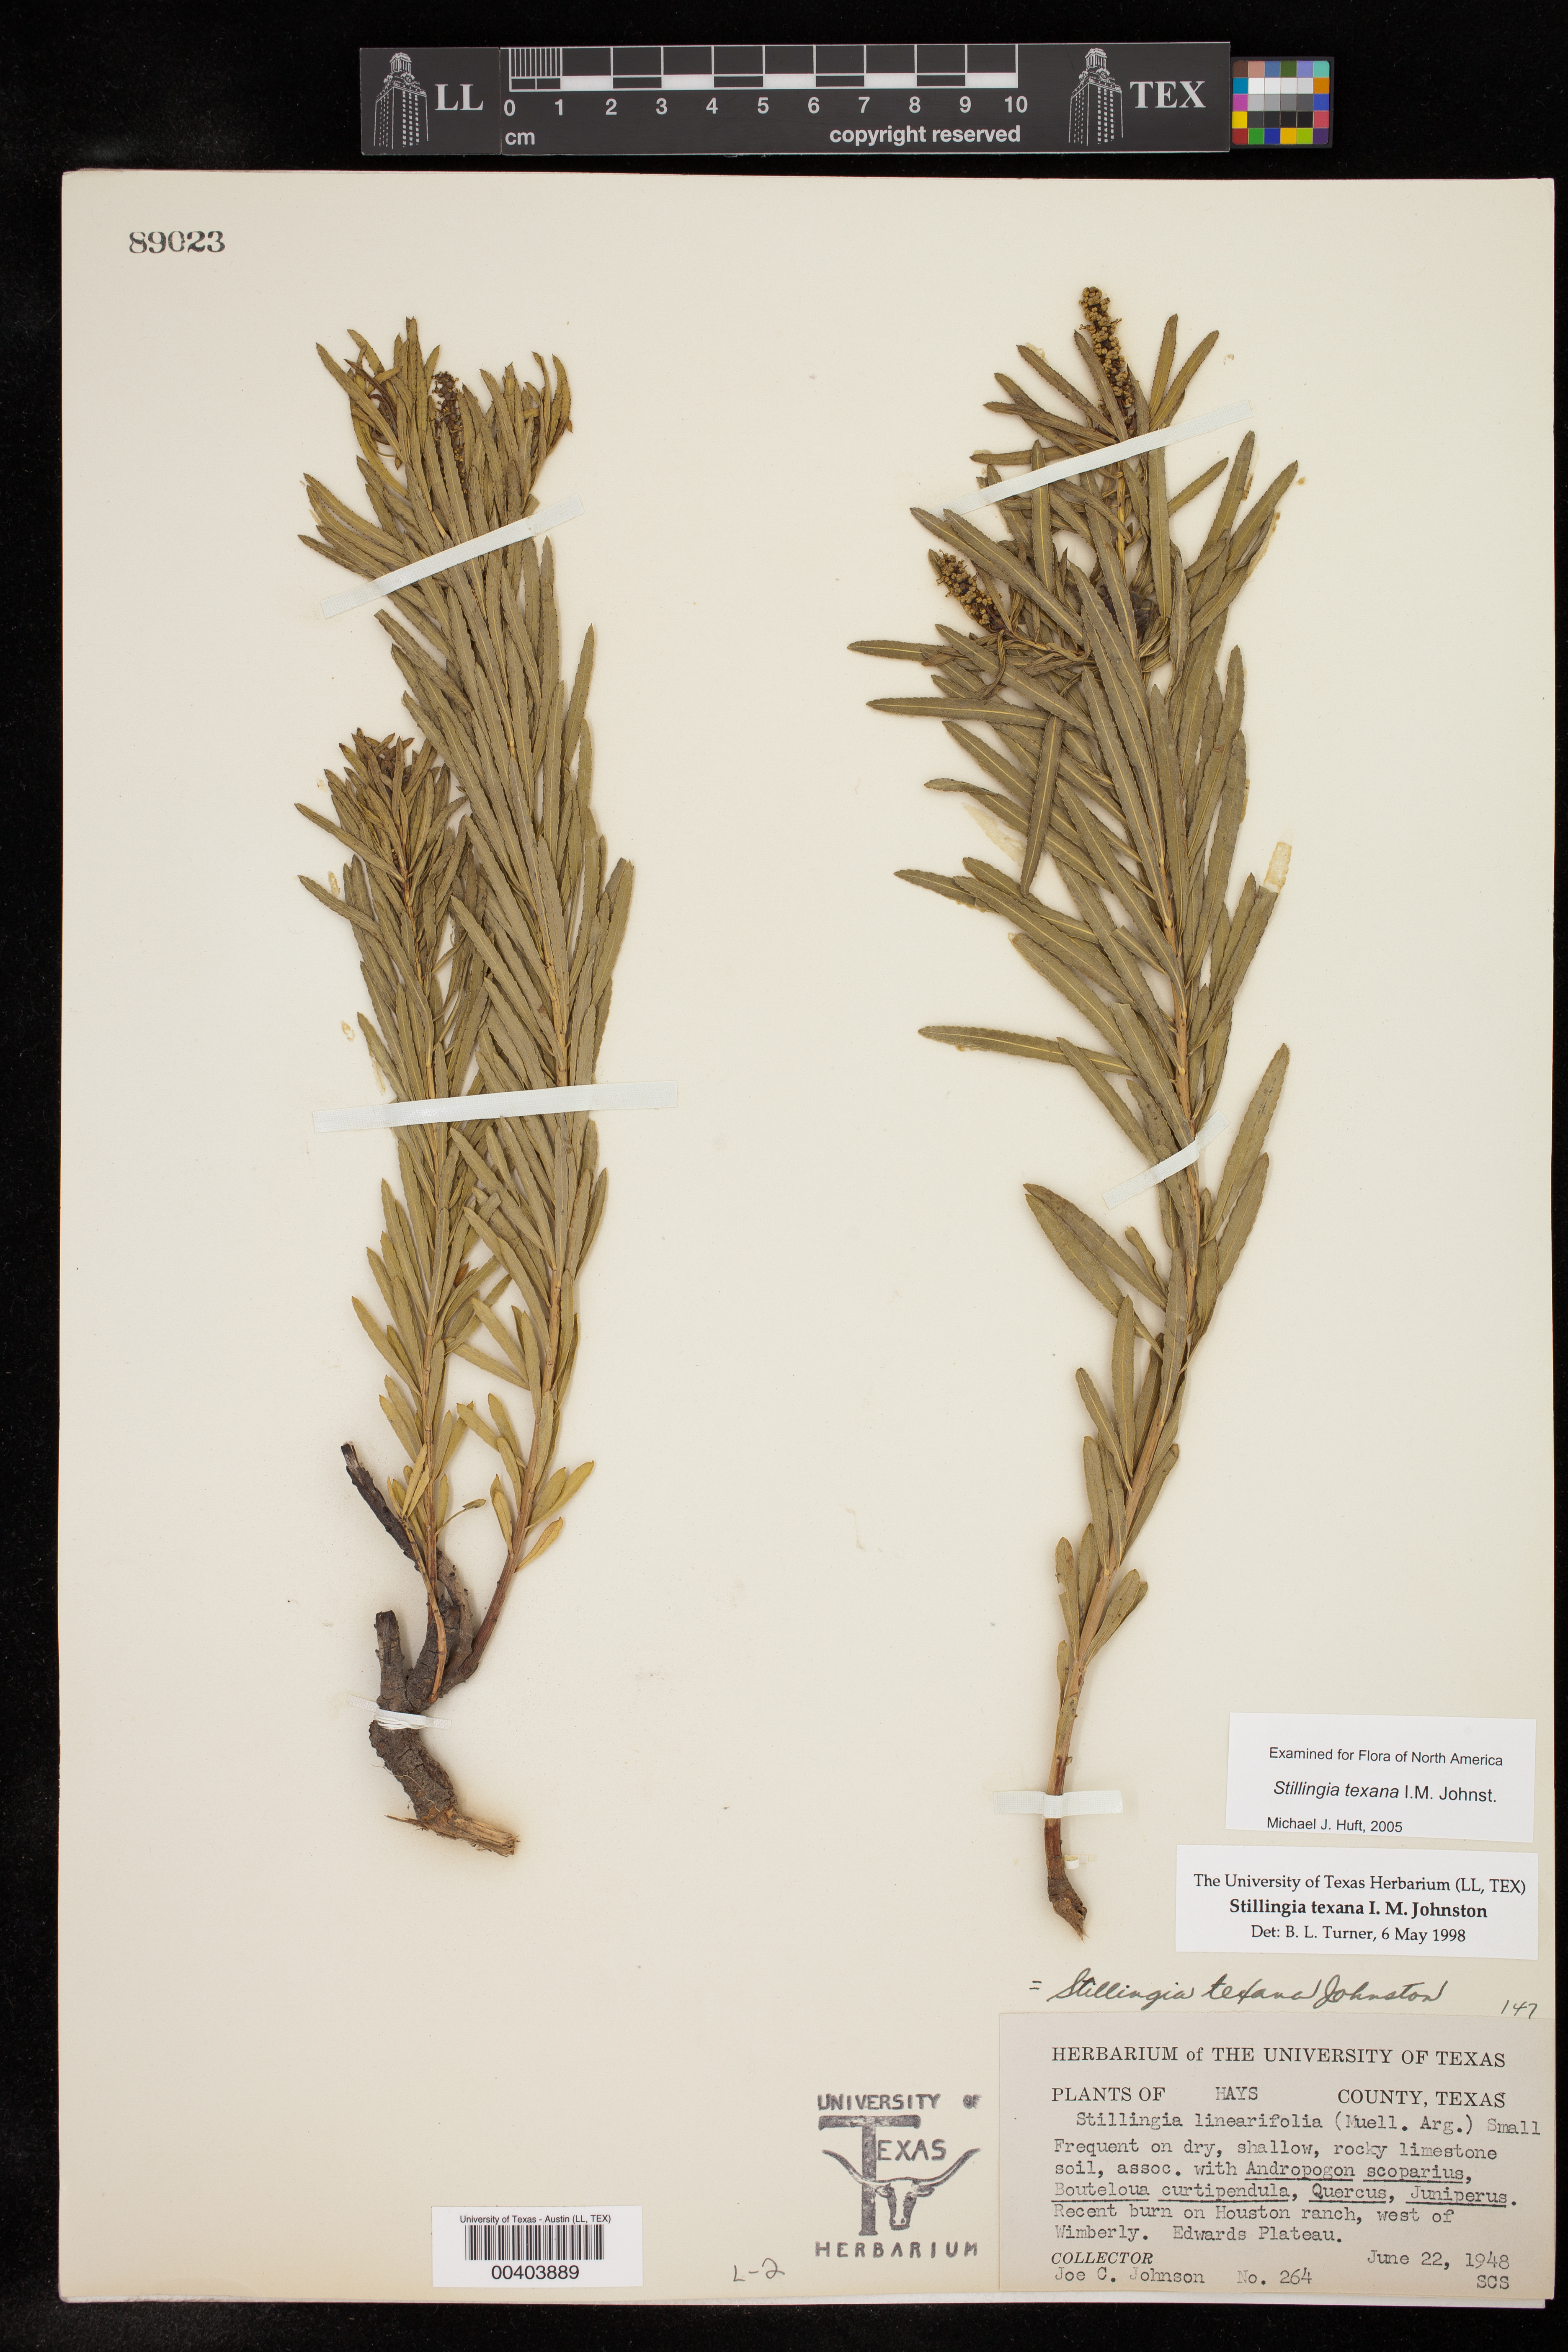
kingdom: Plantae
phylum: Tracheophyta
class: Magnoliopsida
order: Malpighiales
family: Euphorbiaceae
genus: Stillingia
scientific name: Stillingia texana
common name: Texas stillingia
